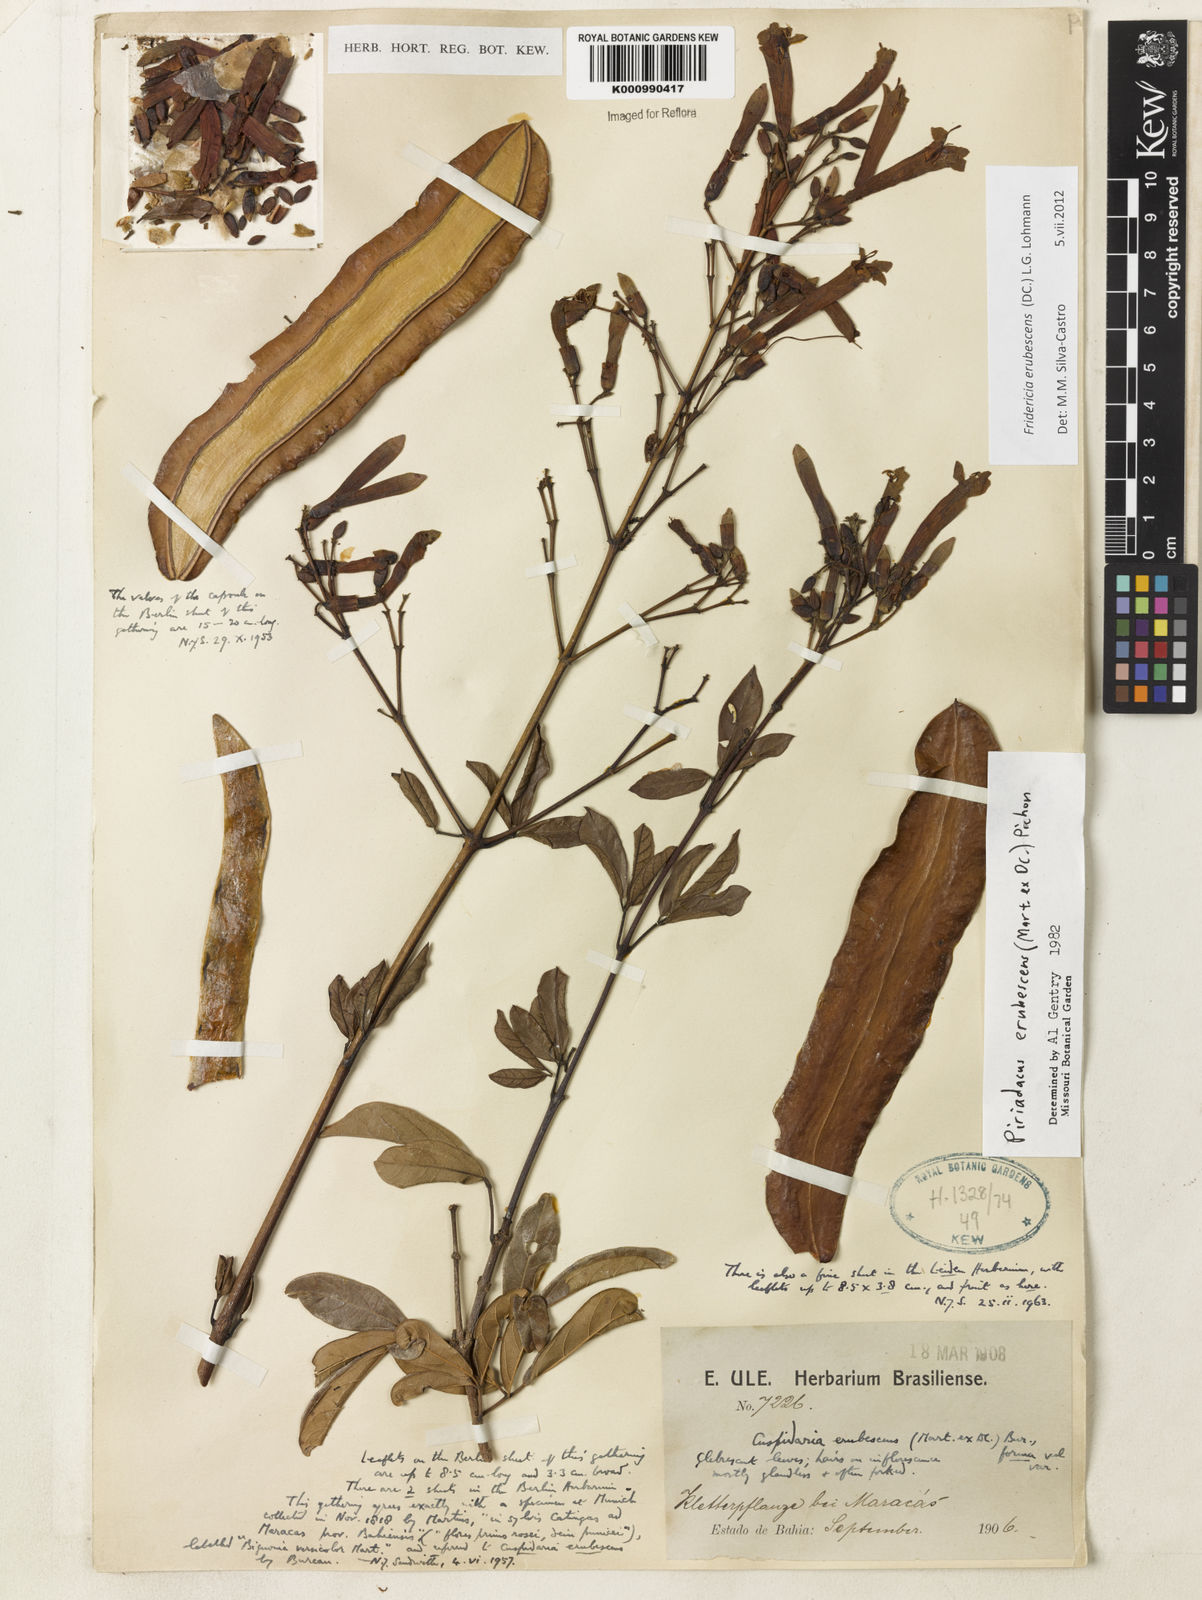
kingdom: Plantae
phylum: Tracheophyta
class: Magnoliopsida
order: Lamiales
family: Bignoniaceae
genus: Fridericia
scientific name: Fridericia erubescens
